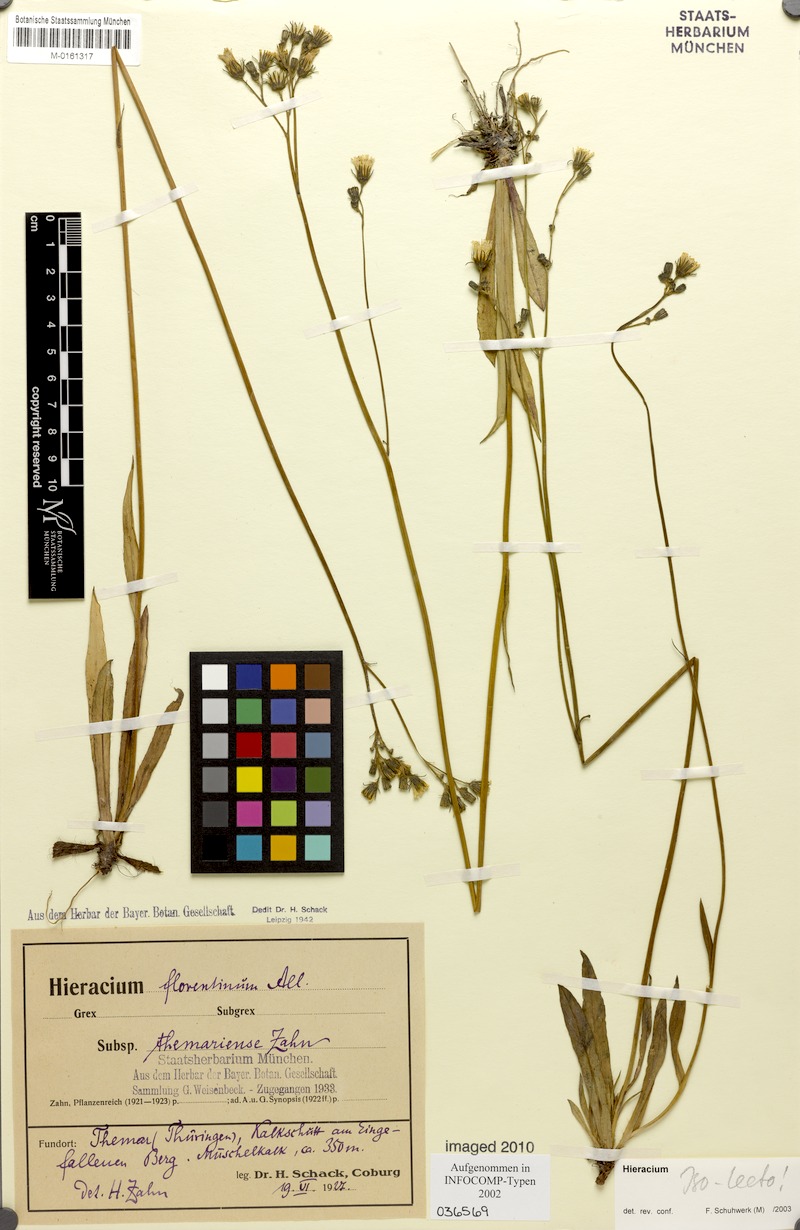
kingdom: Plantae
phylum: Tracheophyta
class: Magnoliopsida
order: Asterales
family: Asteraceae
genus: Pilosella
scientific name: Pilosella piloselloides
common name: Glaucous king-devil
